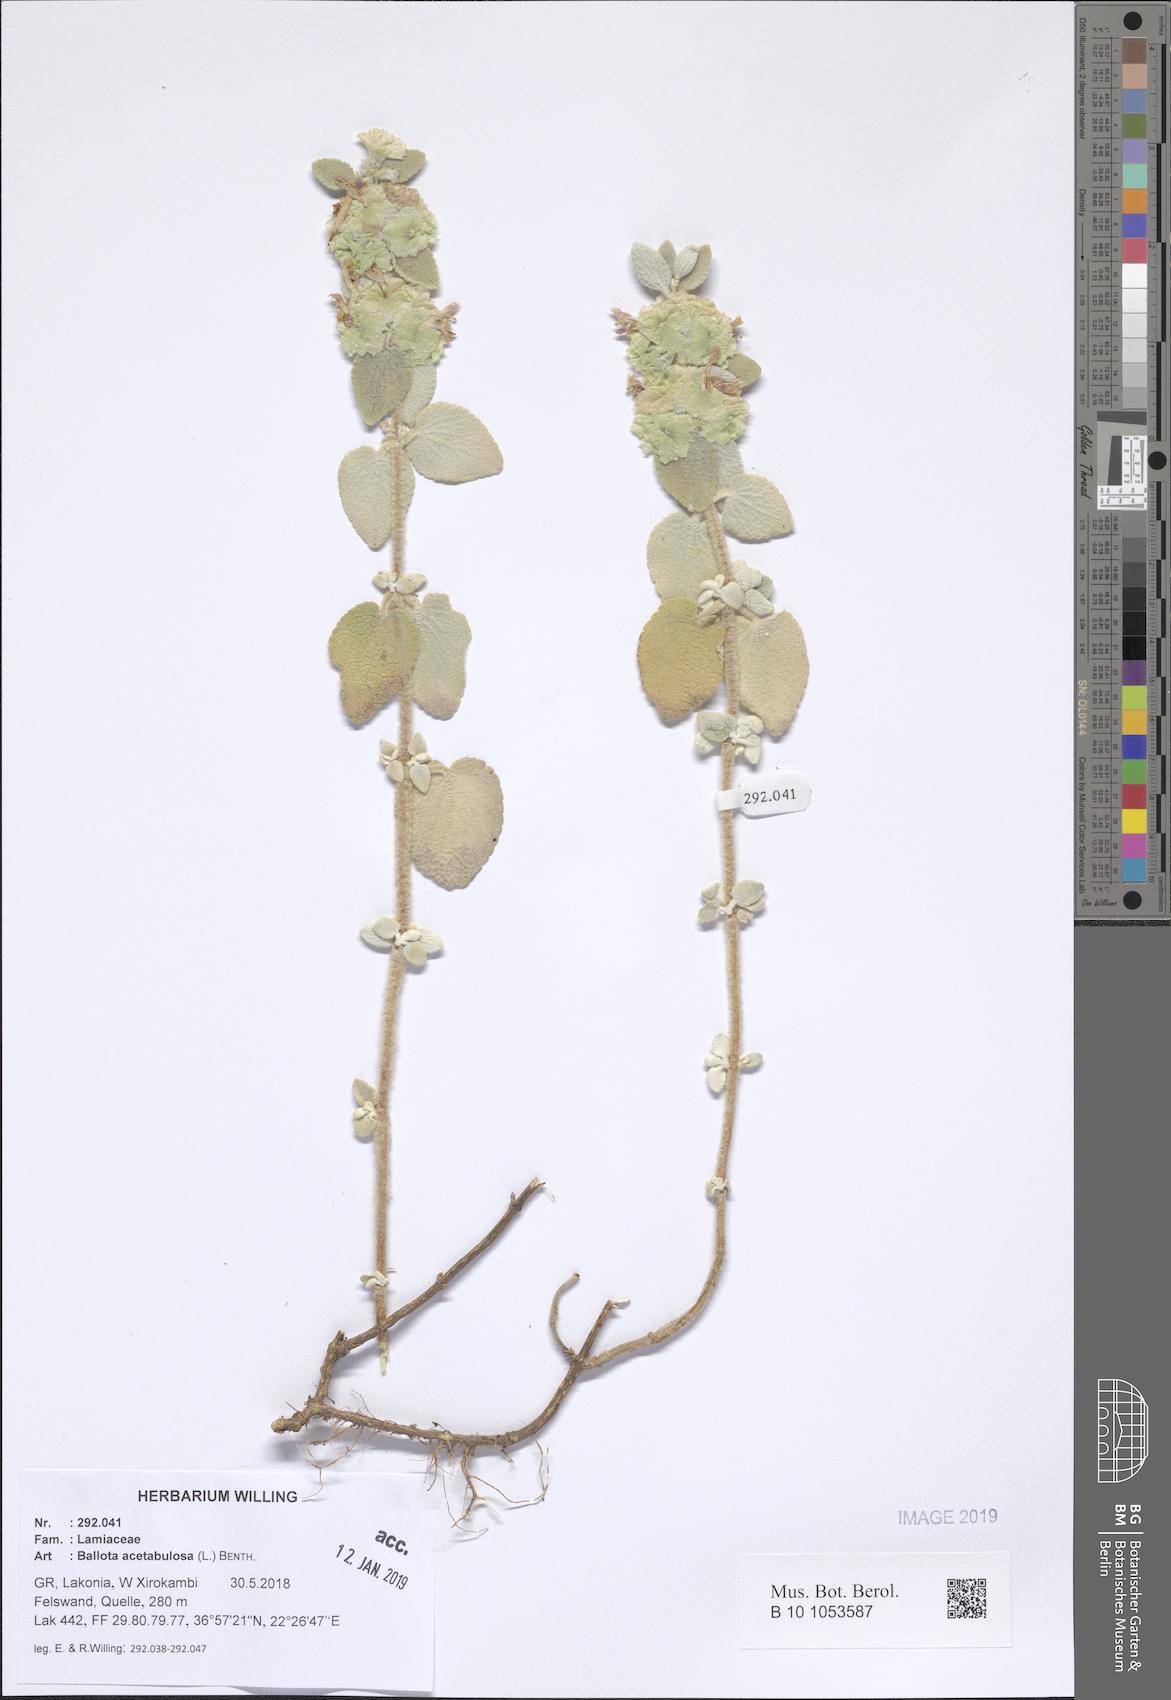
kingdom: Plantae
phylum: Tracheophyta
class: Magnoliopsida
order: Lamiales
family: Lamiaceae
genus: Pseudodictamnus
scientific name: Pseudodictamnus acetabulosus
